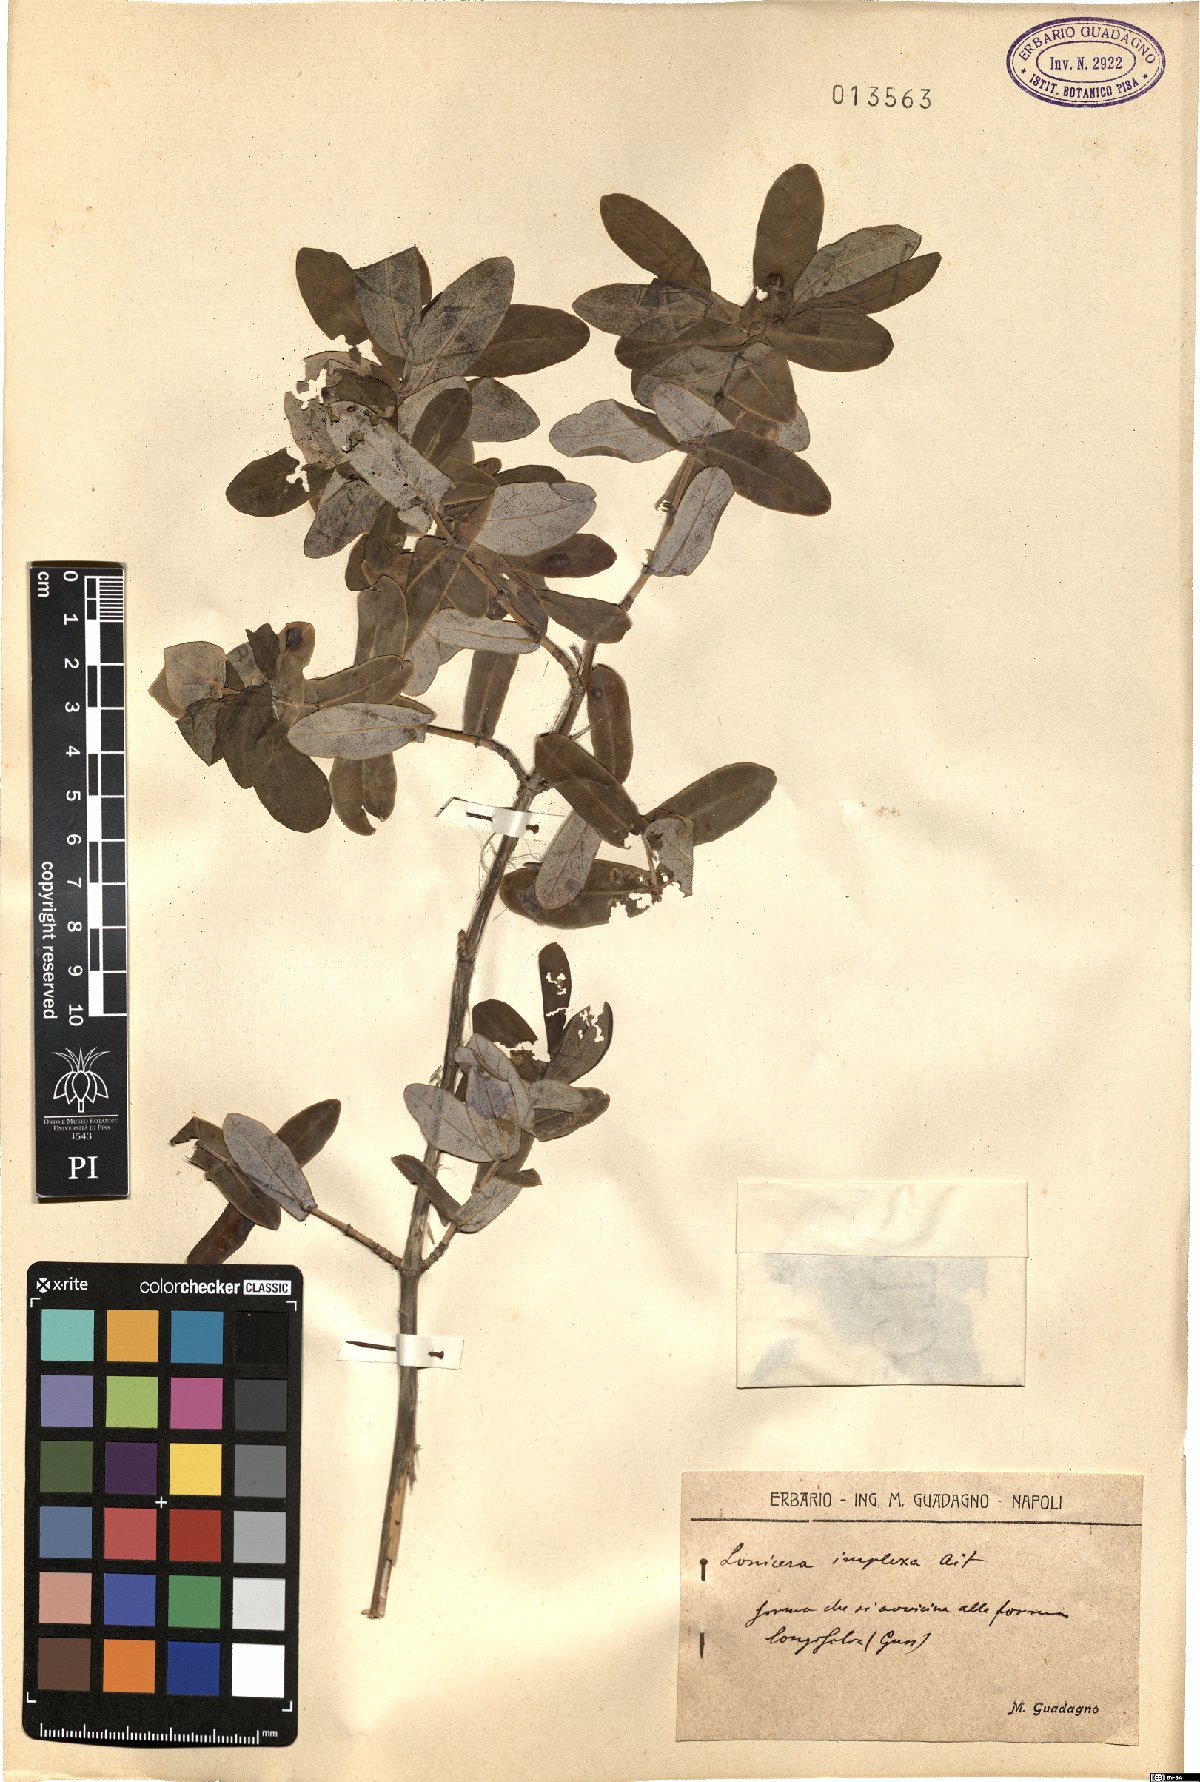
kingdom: Plantae
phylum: Tracheophyta
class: Magnoliopsida
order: Dipsacales
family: Caprifoliaceae
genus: Lonicera
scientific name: Lonicera implexa
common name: Minorca honeysuckle
